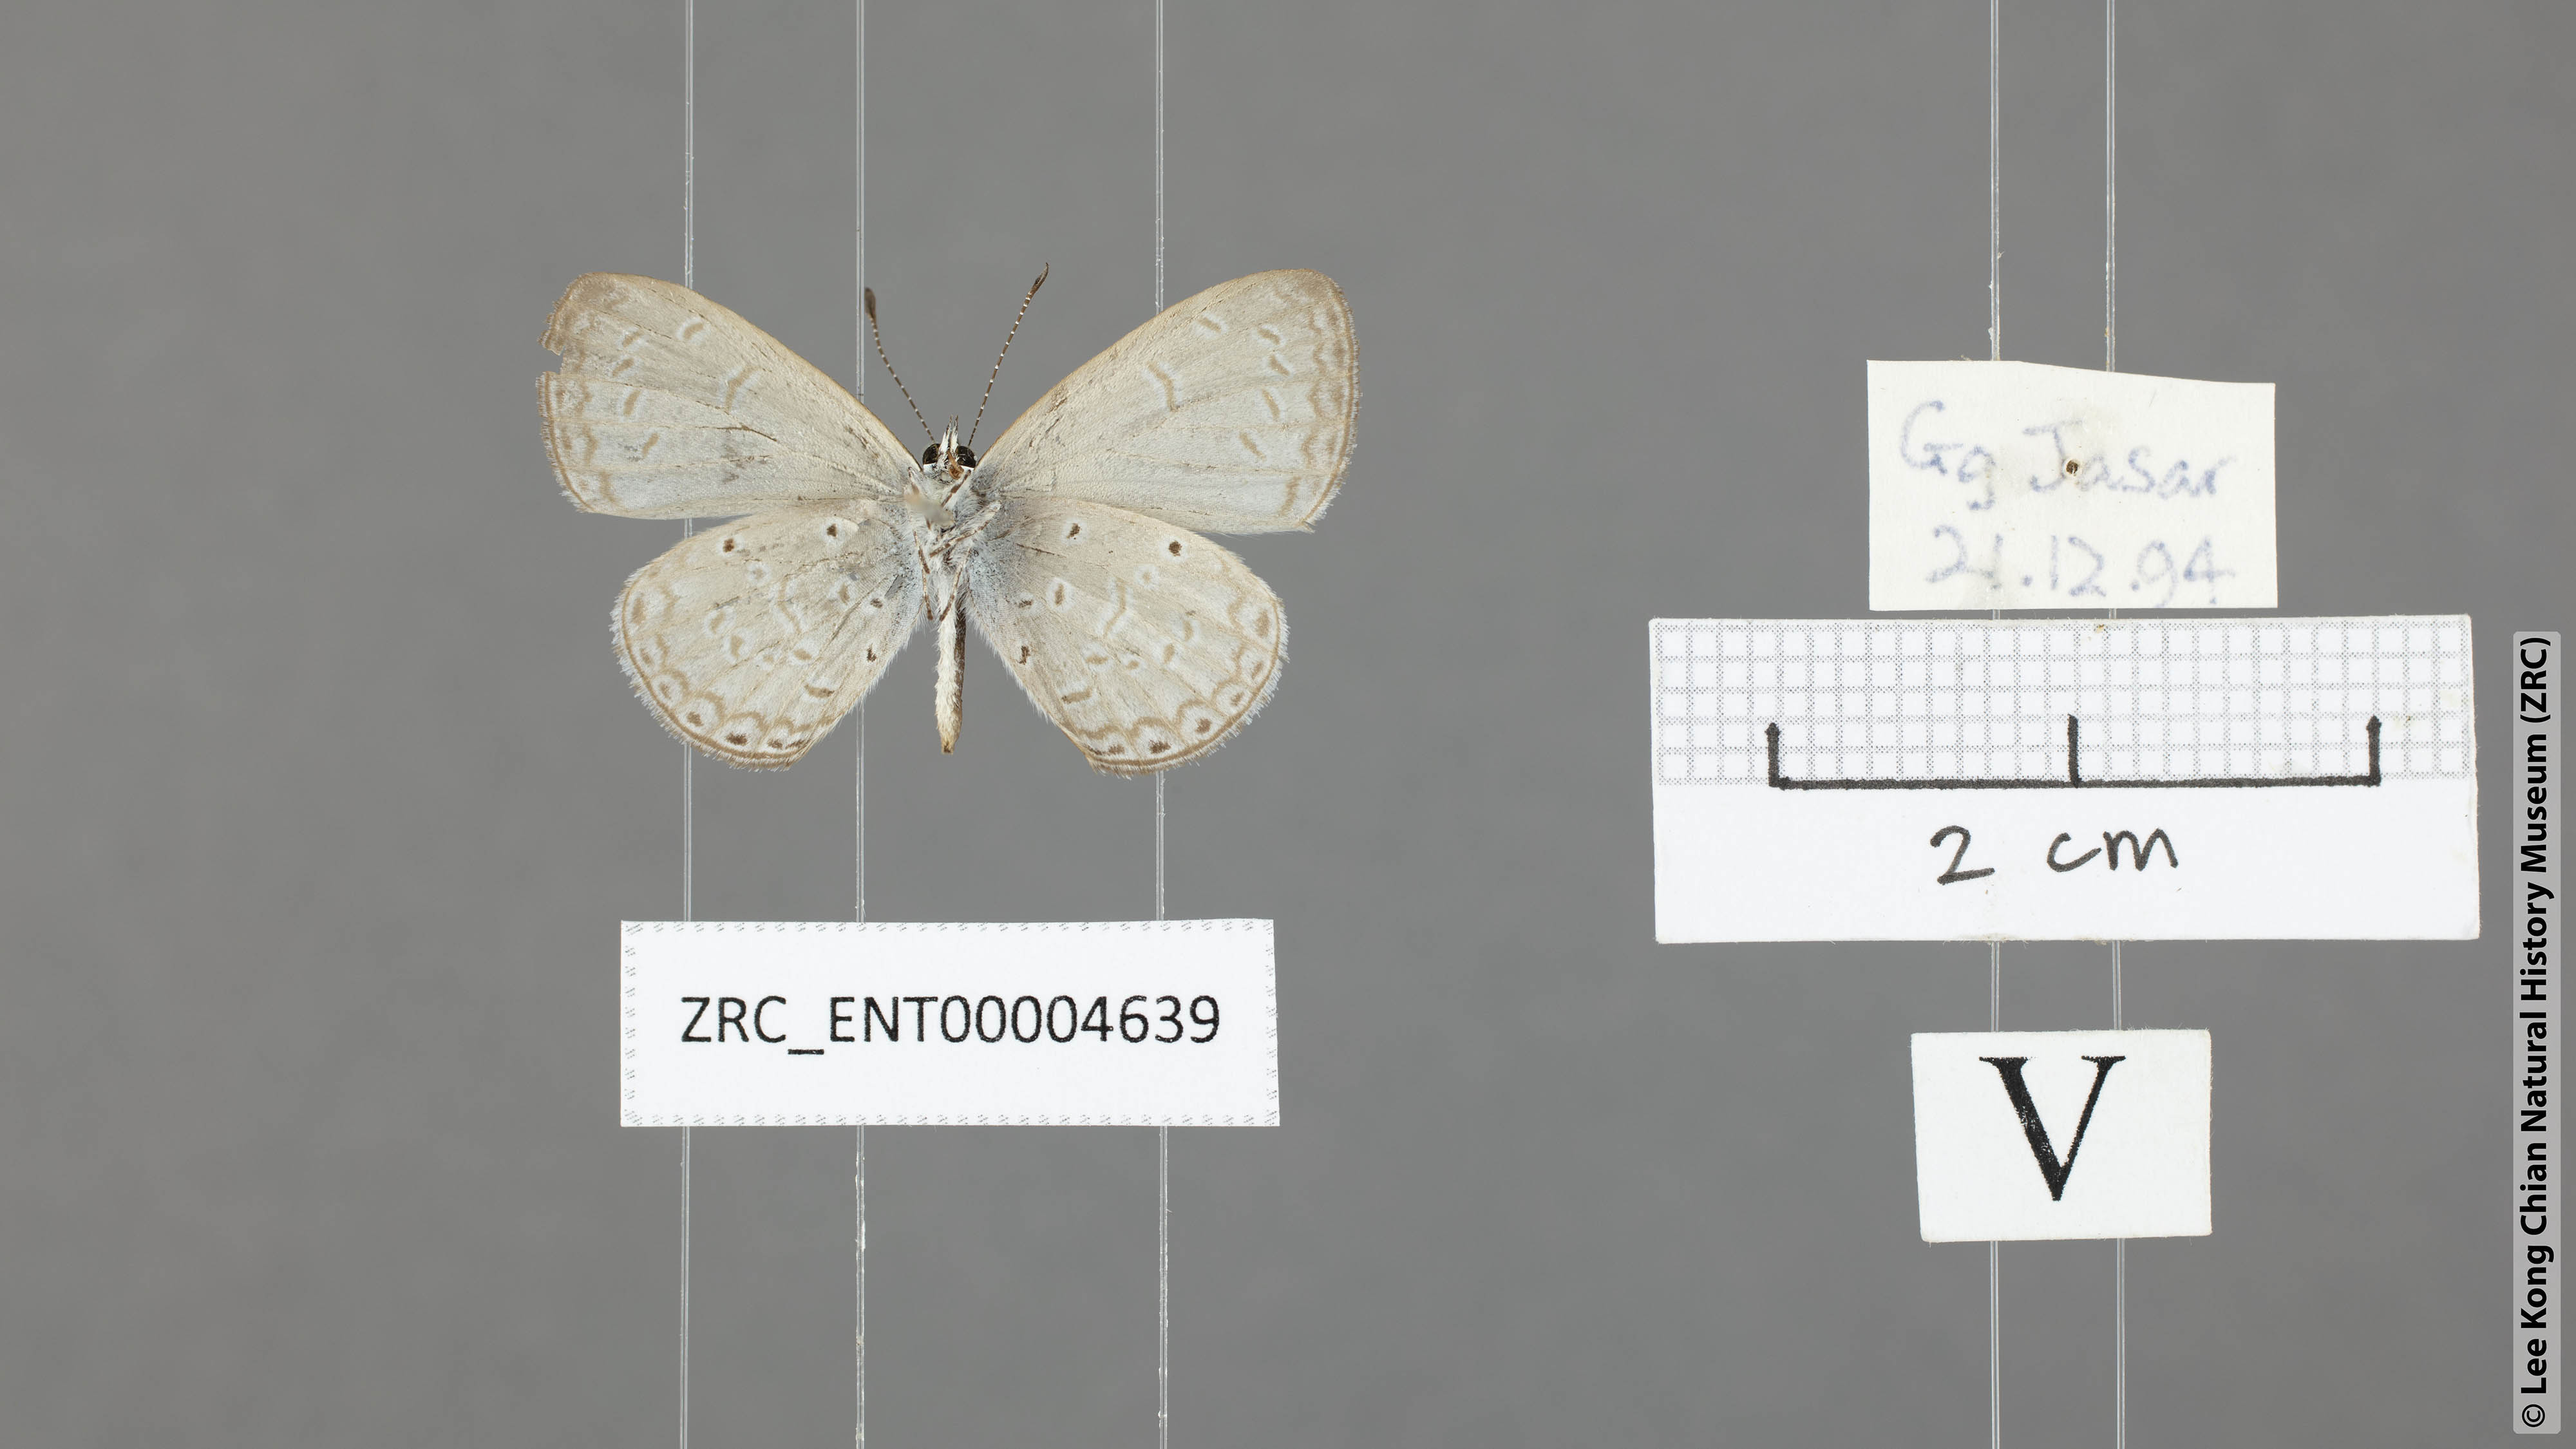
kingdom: Animalia
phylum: Arthropoda
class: Insecta
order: Lepidoptera
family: Lycaenidae
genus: Udara
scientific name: Udara
